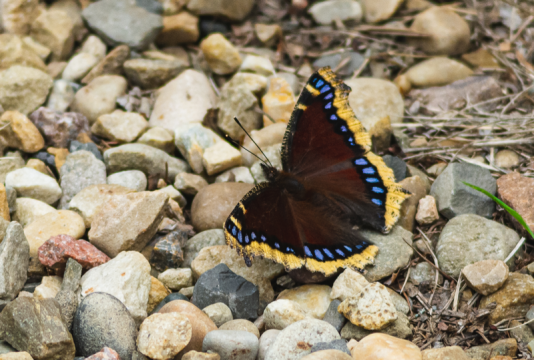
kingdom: Animalia
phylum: Arthropoda
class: Insecta
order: Lepidoptera
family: Nymphalidae
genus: Nymphalis
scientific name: Nymphalis antiopa
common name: Mourning Cloak
